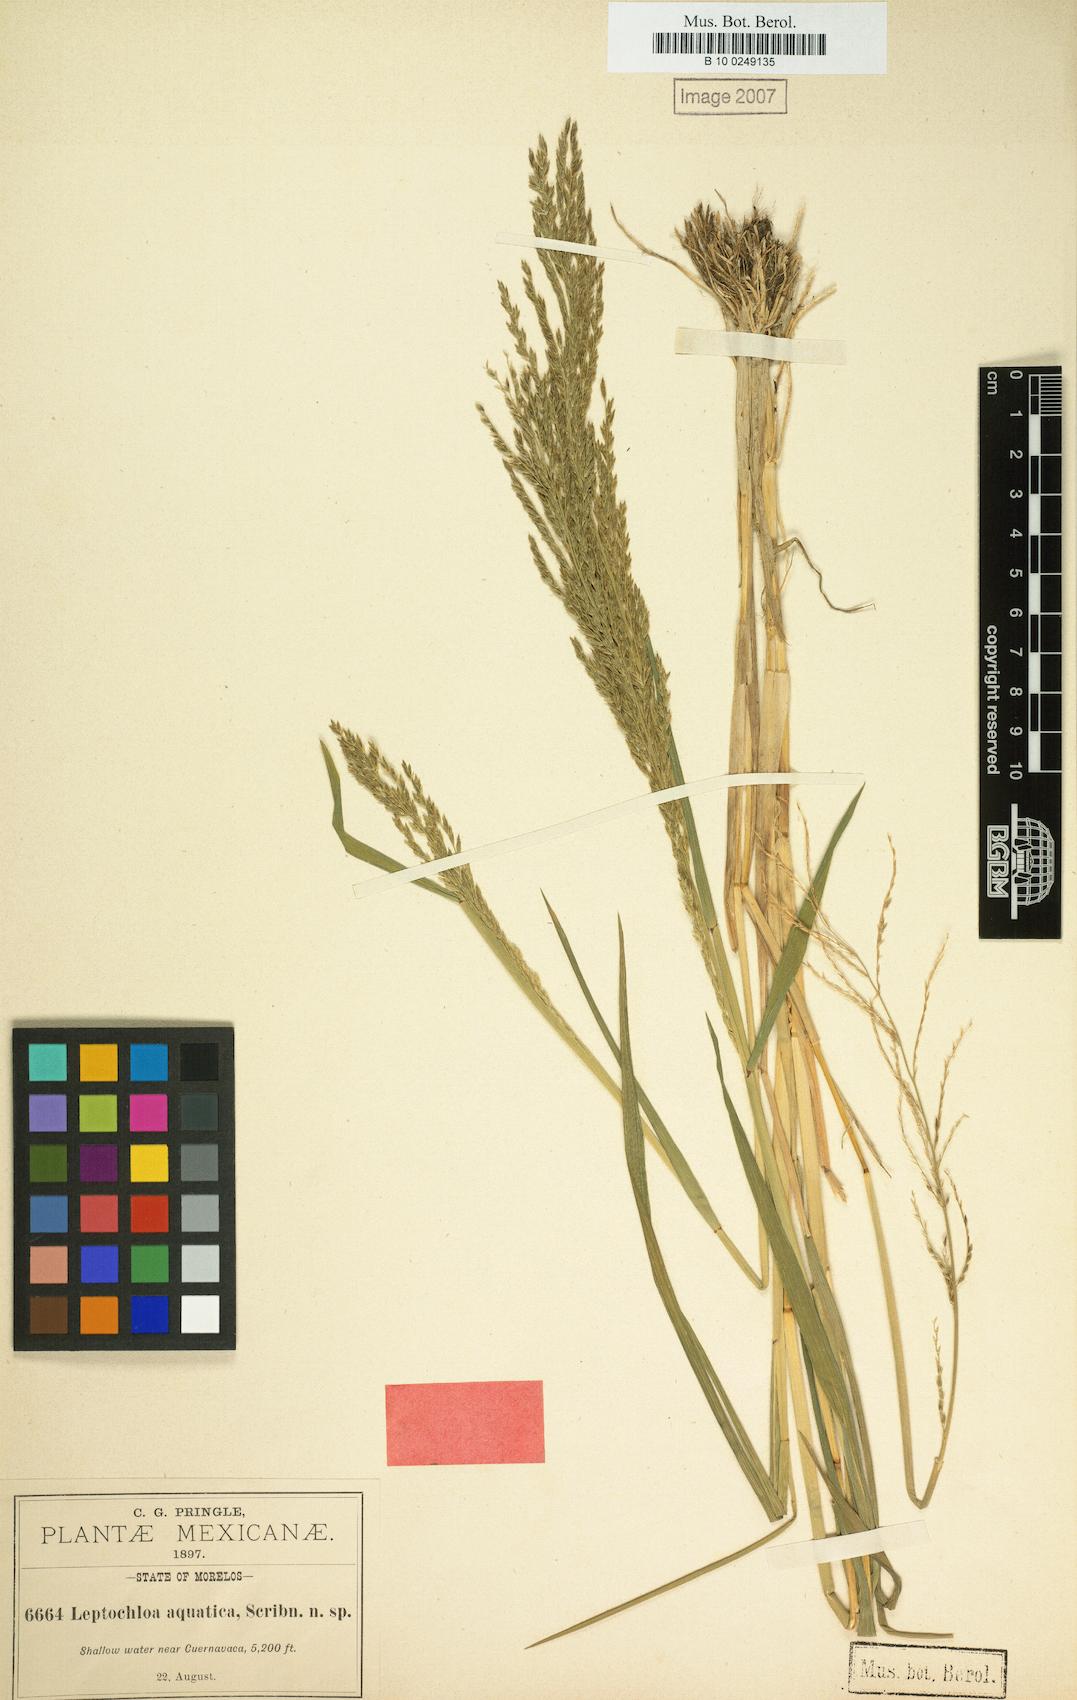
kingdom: Plantae
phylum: Tracheophyta
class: Liliopsida
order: Poales
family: Poaceae
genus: Leptochloa
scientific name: Leptochloa aquatica
